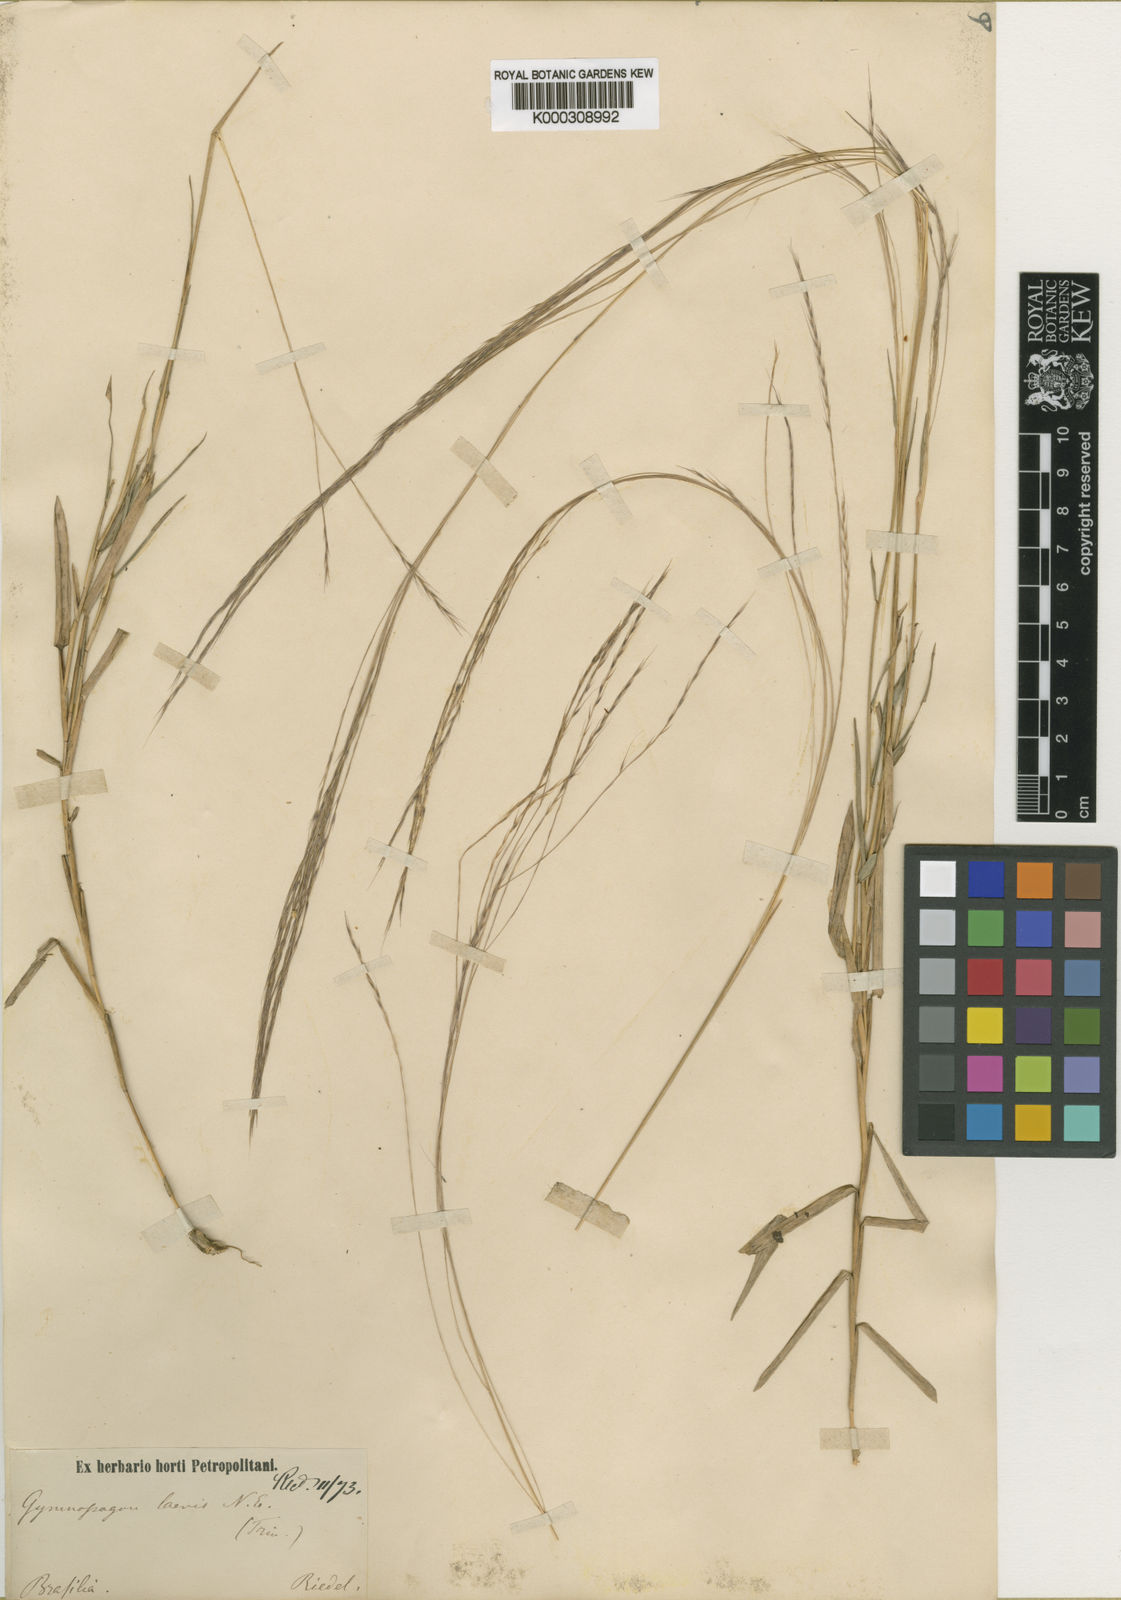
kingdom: Plantae
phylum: Tracheophyta
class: Liliopsida
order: Poales
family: Poaceae
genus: Gymnopogon
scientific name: Gymnopogon spicatus
